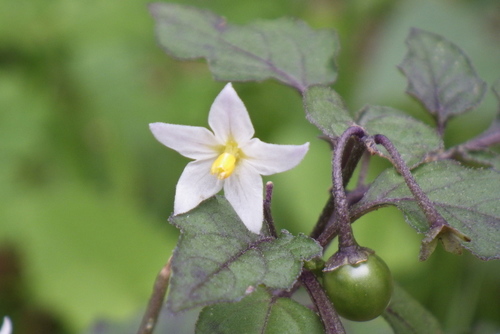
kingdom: Plantae
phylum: Tracheophyta
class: Magnoliopsida
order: Solanales
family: Solanaceae
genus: Solanum
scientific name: Solanum nigrum
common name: Black nightshade
